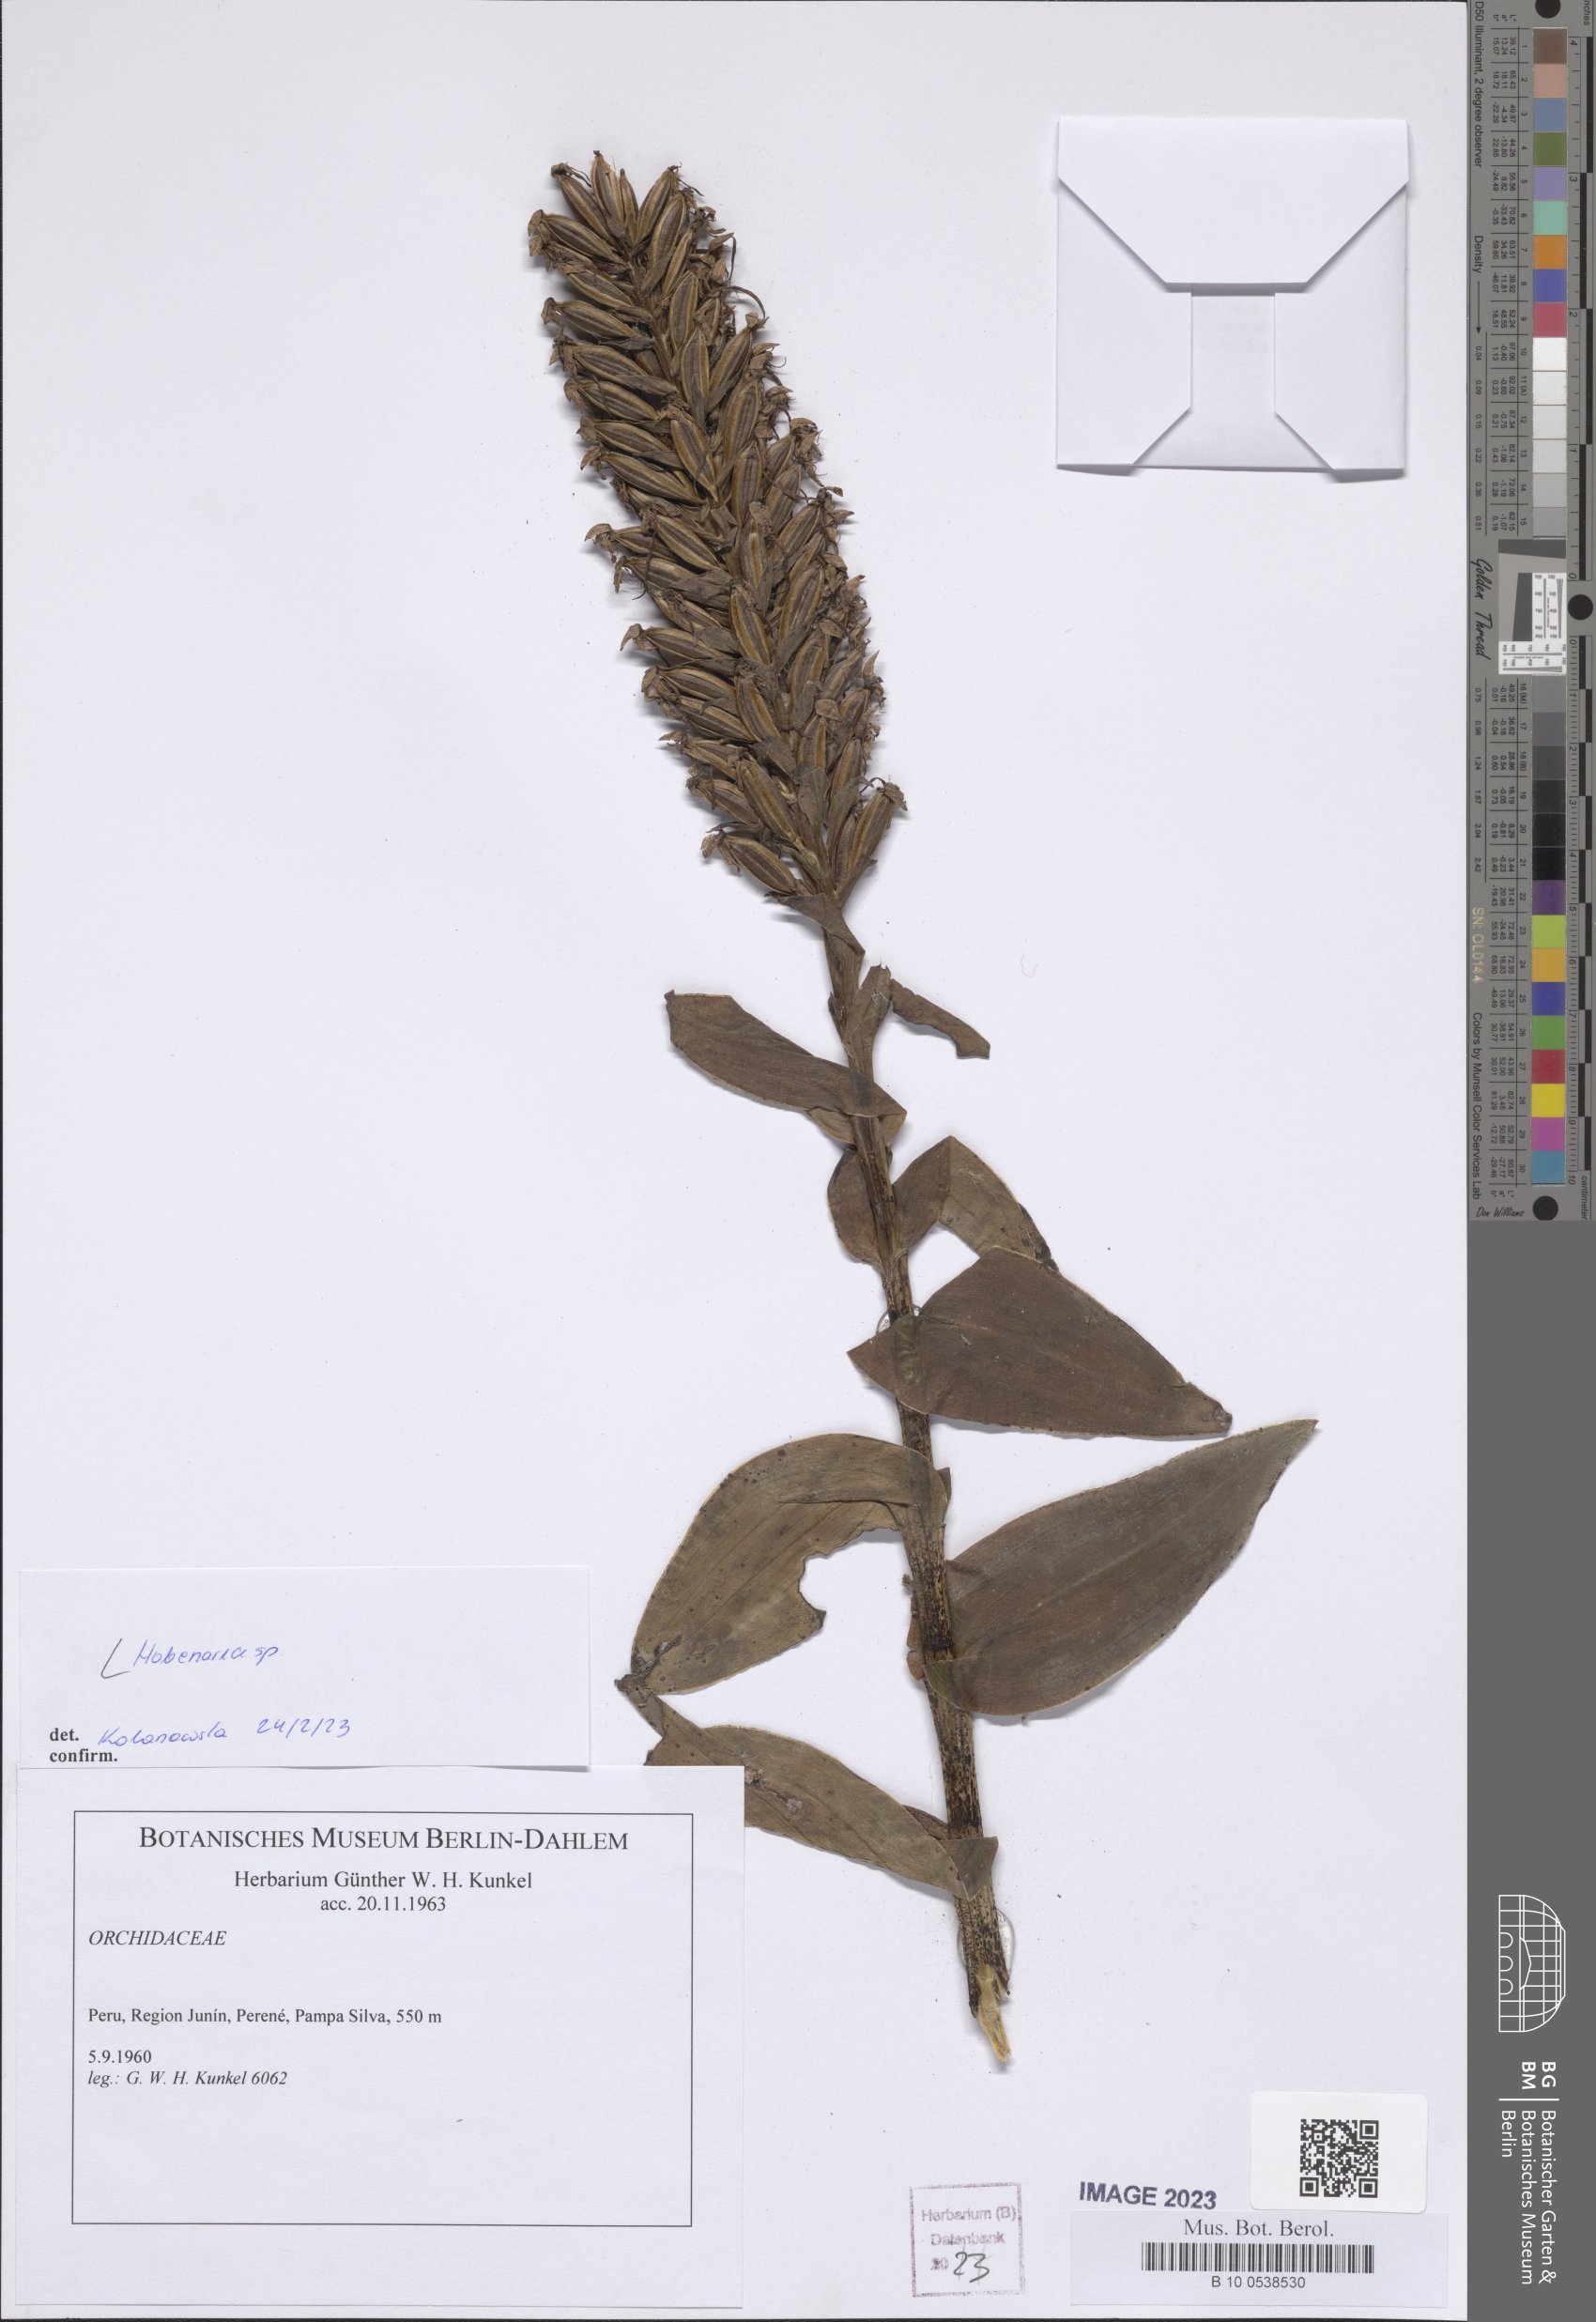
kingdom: Plantae
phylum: Tracheophyta
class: Liliopsida
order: Asparagales
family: Orchidaceae
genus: Habenaria
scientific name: Habenaria
